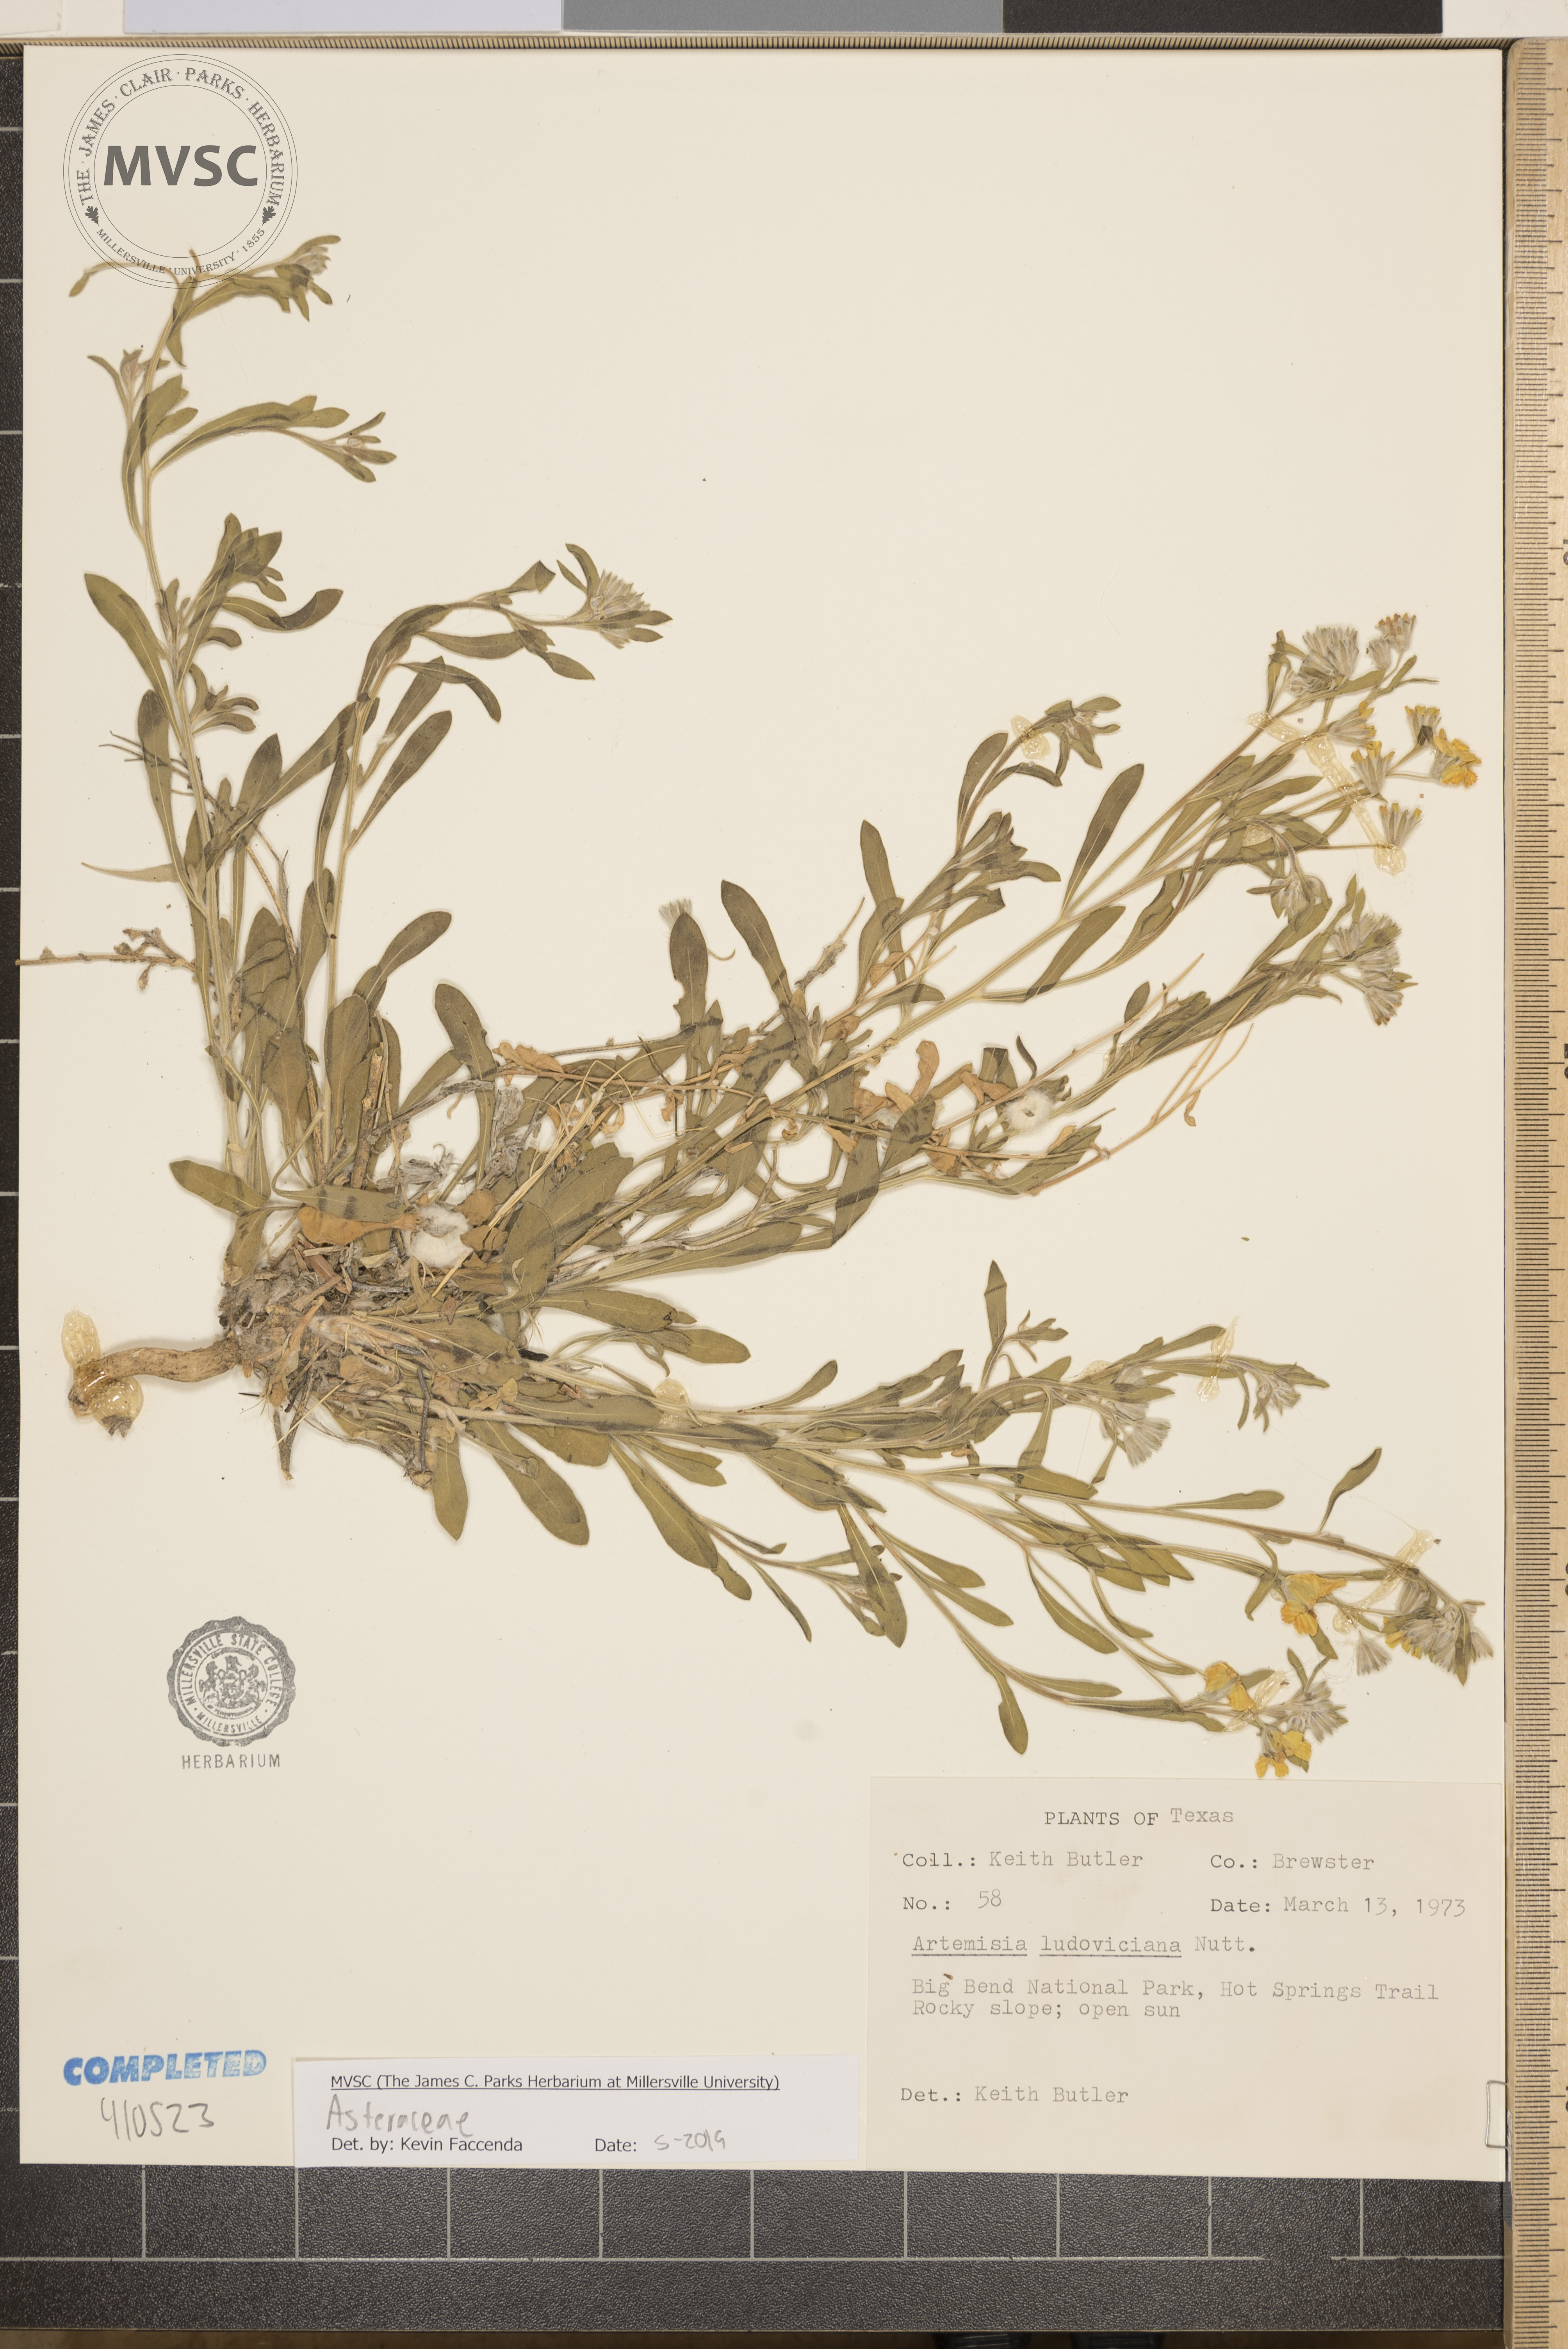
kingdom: Plantae
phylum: Tracheophyta
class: Magnoliopsida
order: Asterales
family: Asteraceae
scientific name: Asteraceae
